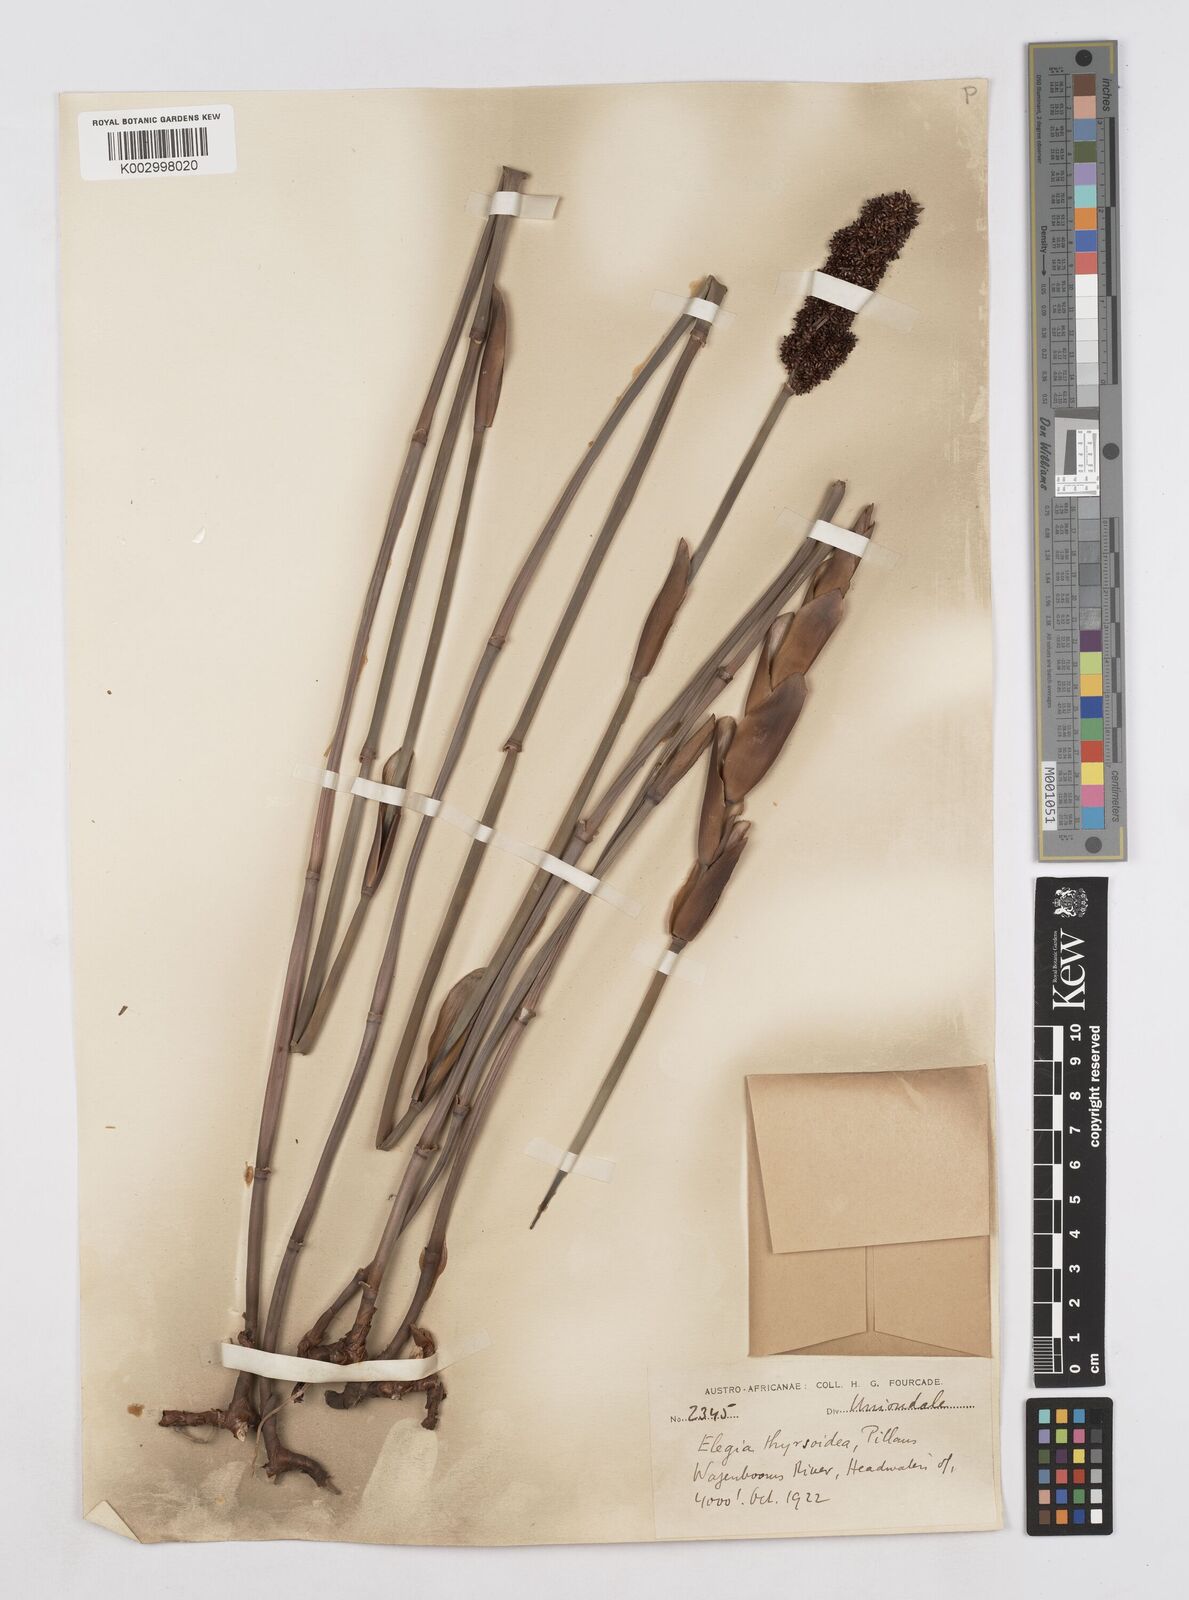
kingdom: Plantae
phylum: Tracheophyta
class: Liliopsida
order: Poales
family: Restionaceae
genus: Elegia
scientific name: Elegia thyrsoidea
